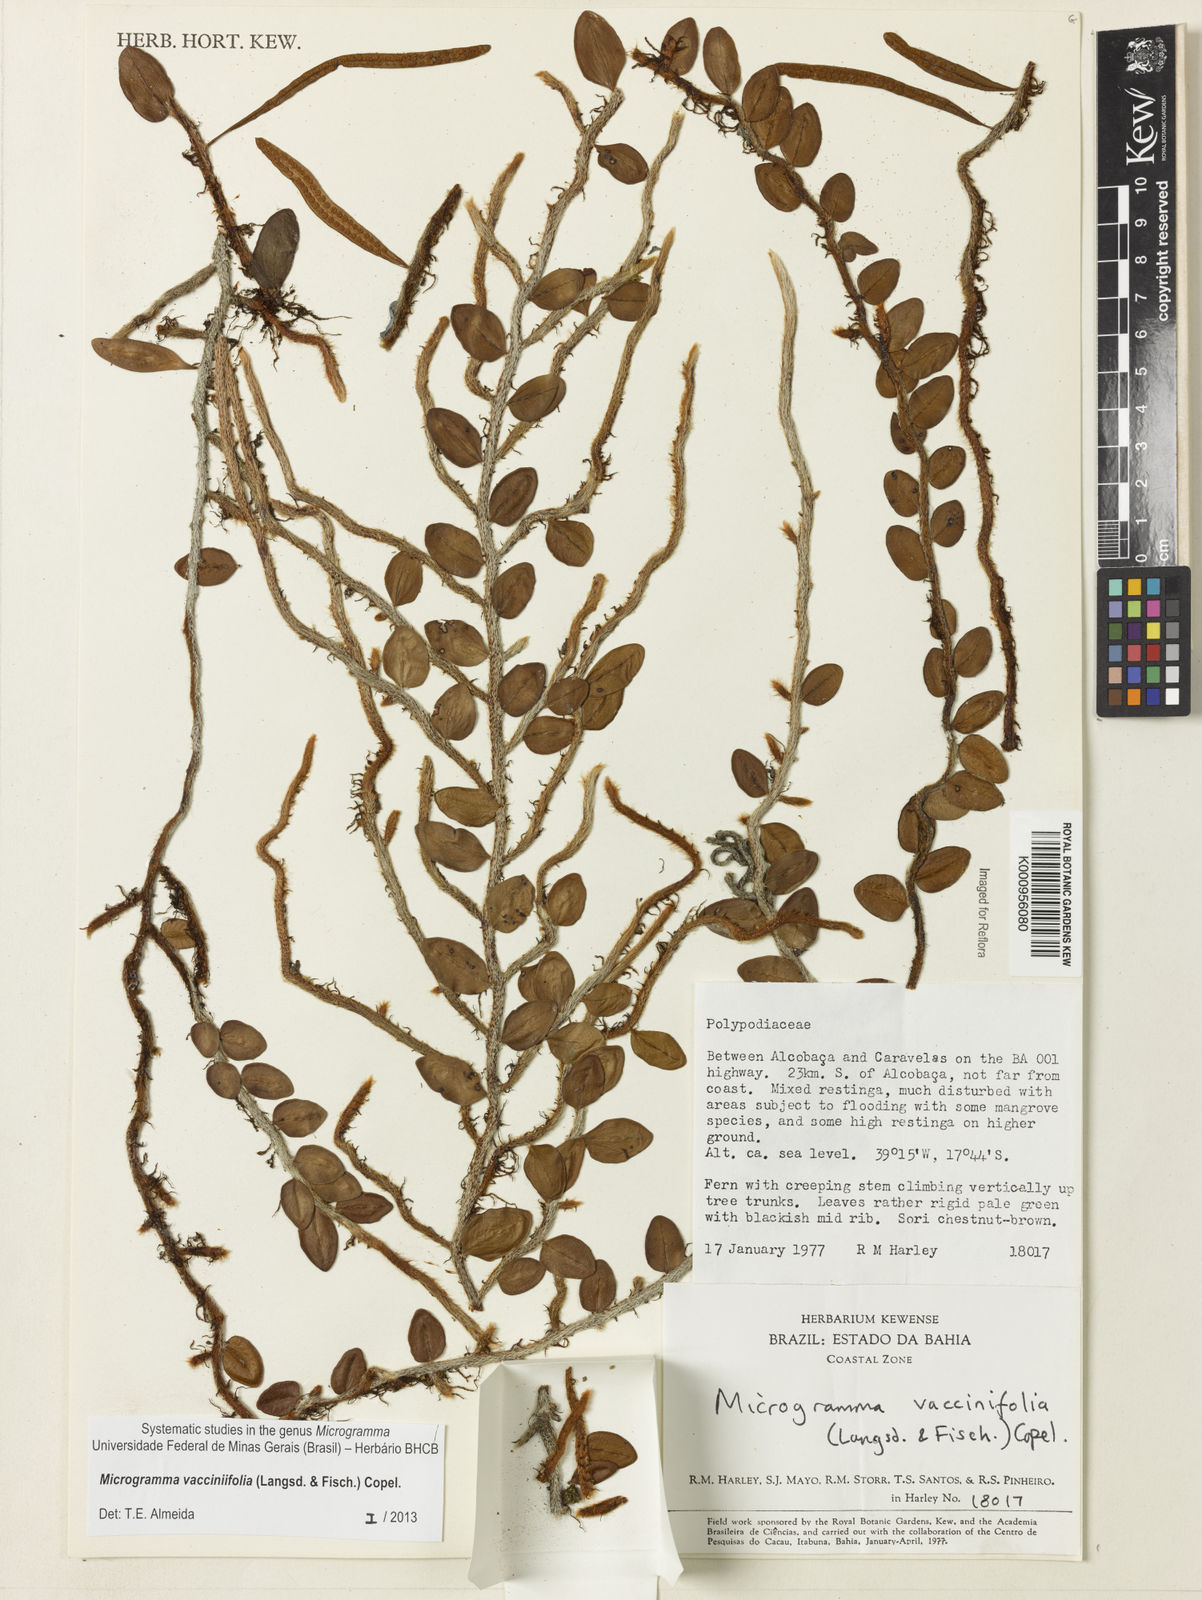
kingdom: Plantae
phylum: Tracheophyta
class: Polypodiopsida
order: Polypodiales
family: Polypodiaceae
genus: Phlebodium
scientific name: Phlebodium
